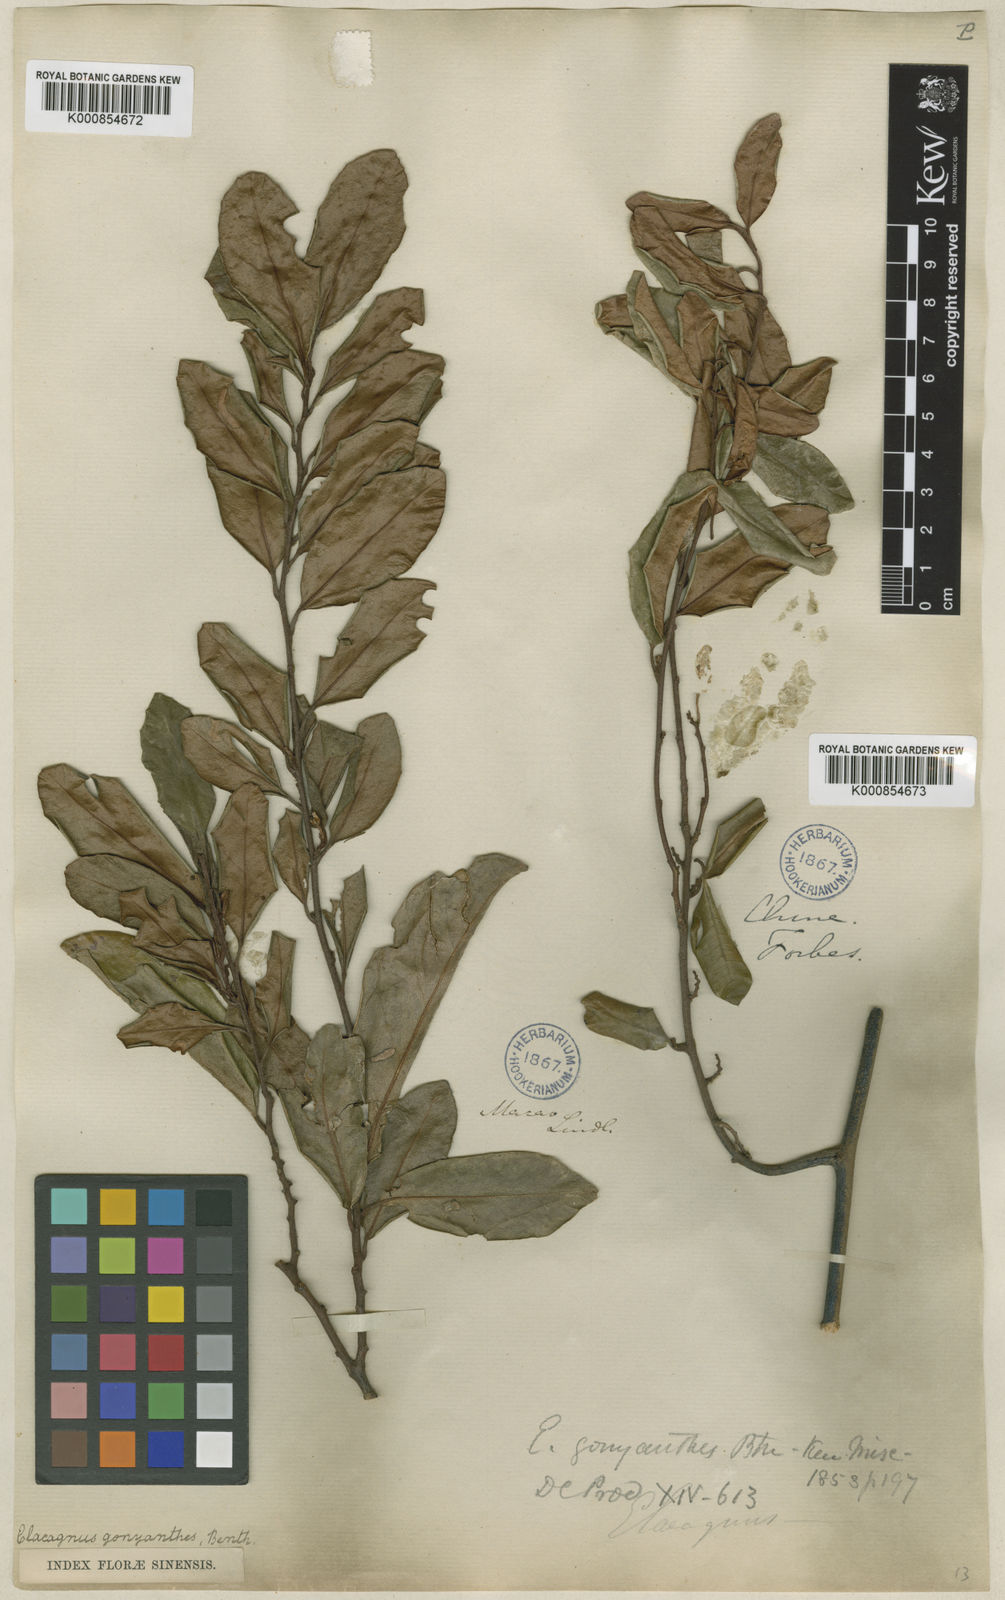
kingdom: Plantae
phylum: Tracheophyta
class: Magnoliopsida
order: Rosales
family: Elaeagnaceae
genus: Elaeagnus
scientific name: Elaeagnus conferta
